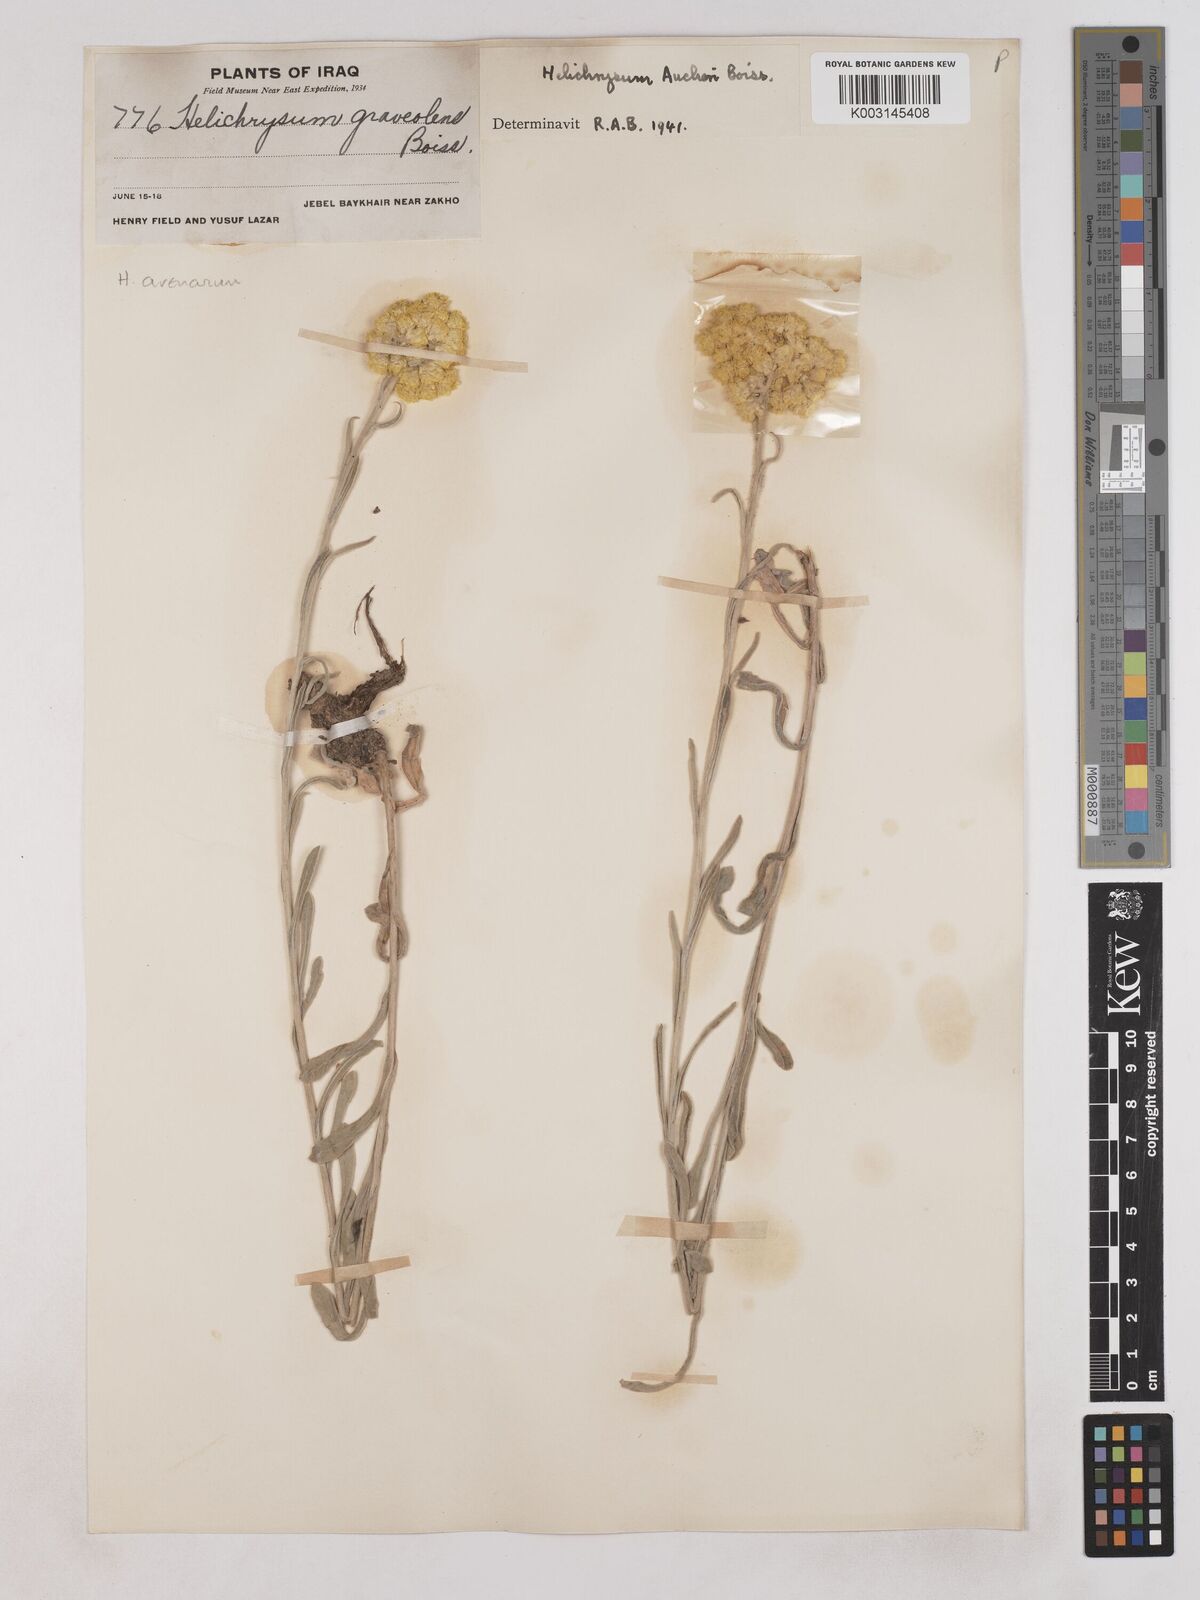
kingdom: Plantae
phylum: Tracheophyta
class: Magnoliopsida
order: Asterales
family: Asteraceae
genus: Helichrysum
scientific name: Helichrysum arenarium
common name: Strawflower
